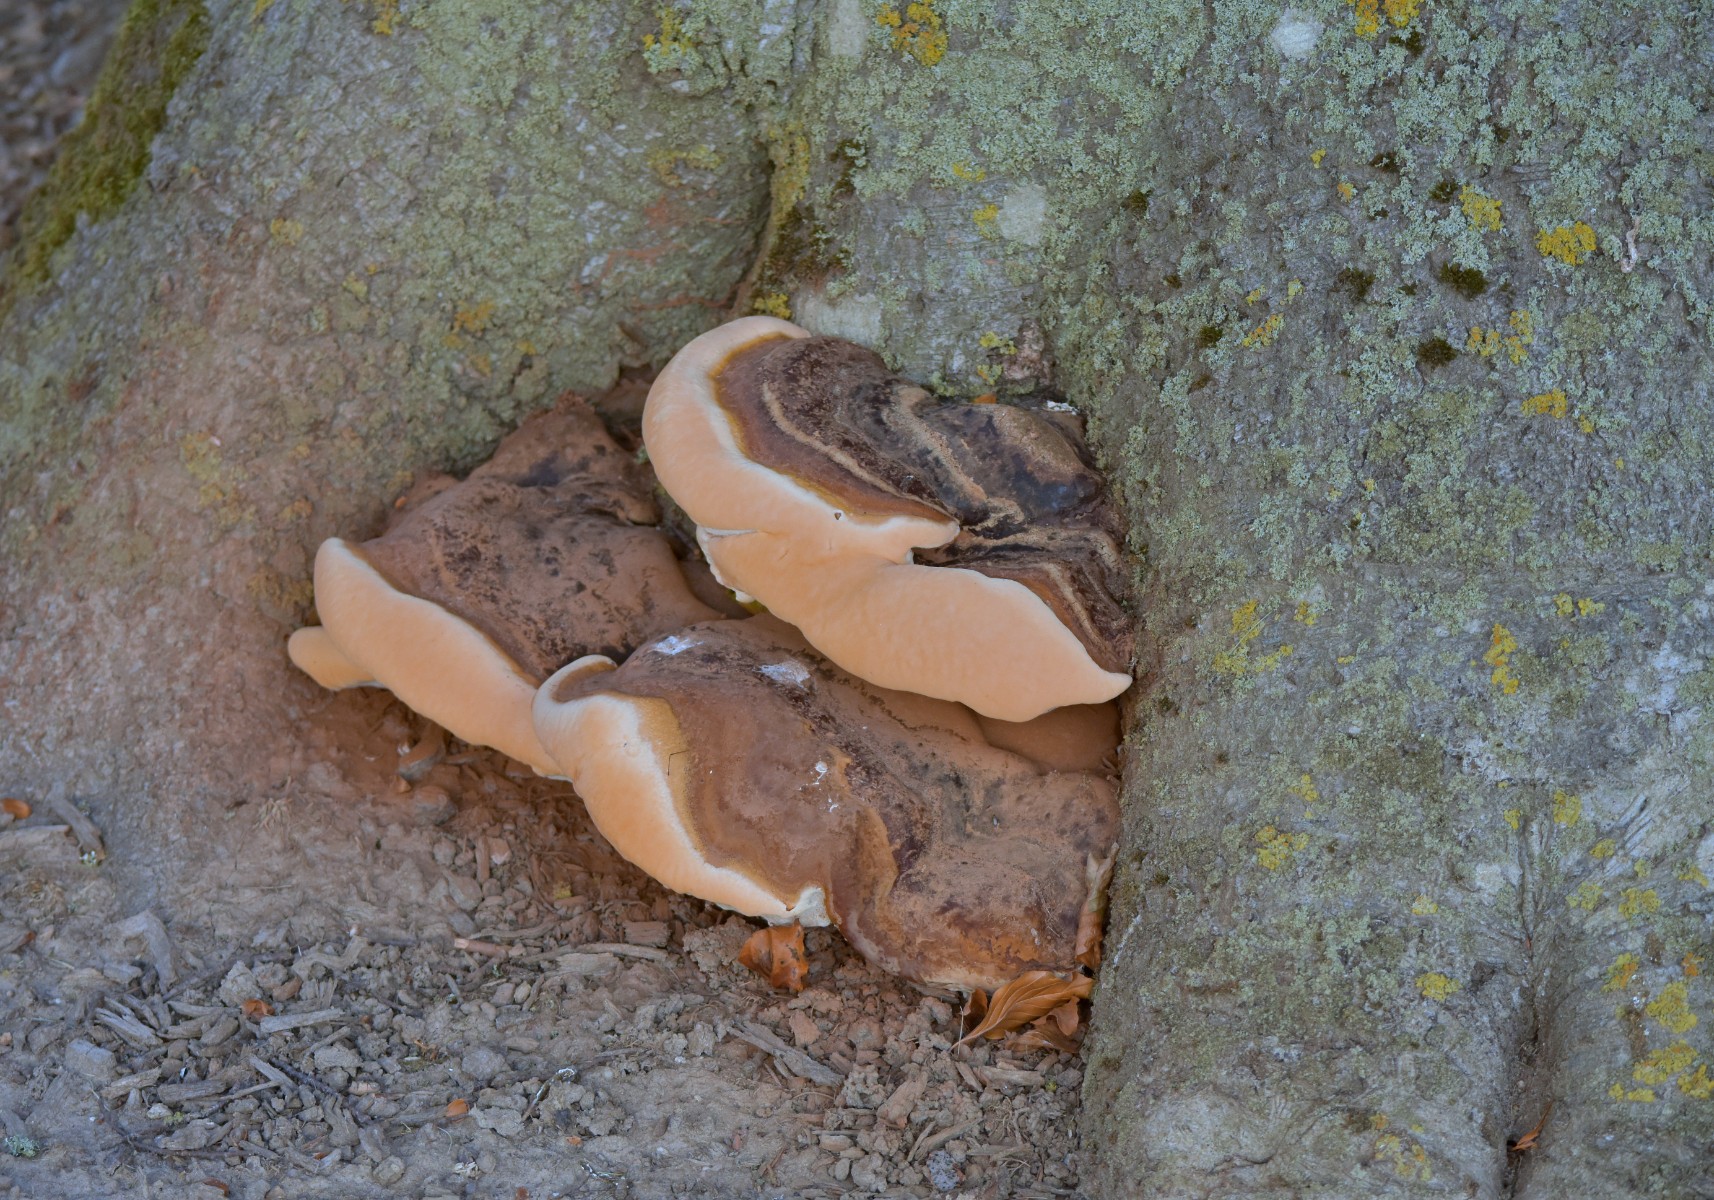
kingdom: Fungi
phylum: Basidiomycota
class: Agaricomycetes
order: Polyporales
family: Polyporaceae
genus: Ganoderma
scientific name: Ganoderma resinaceum
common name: gyldenbrun lakporesvamp
